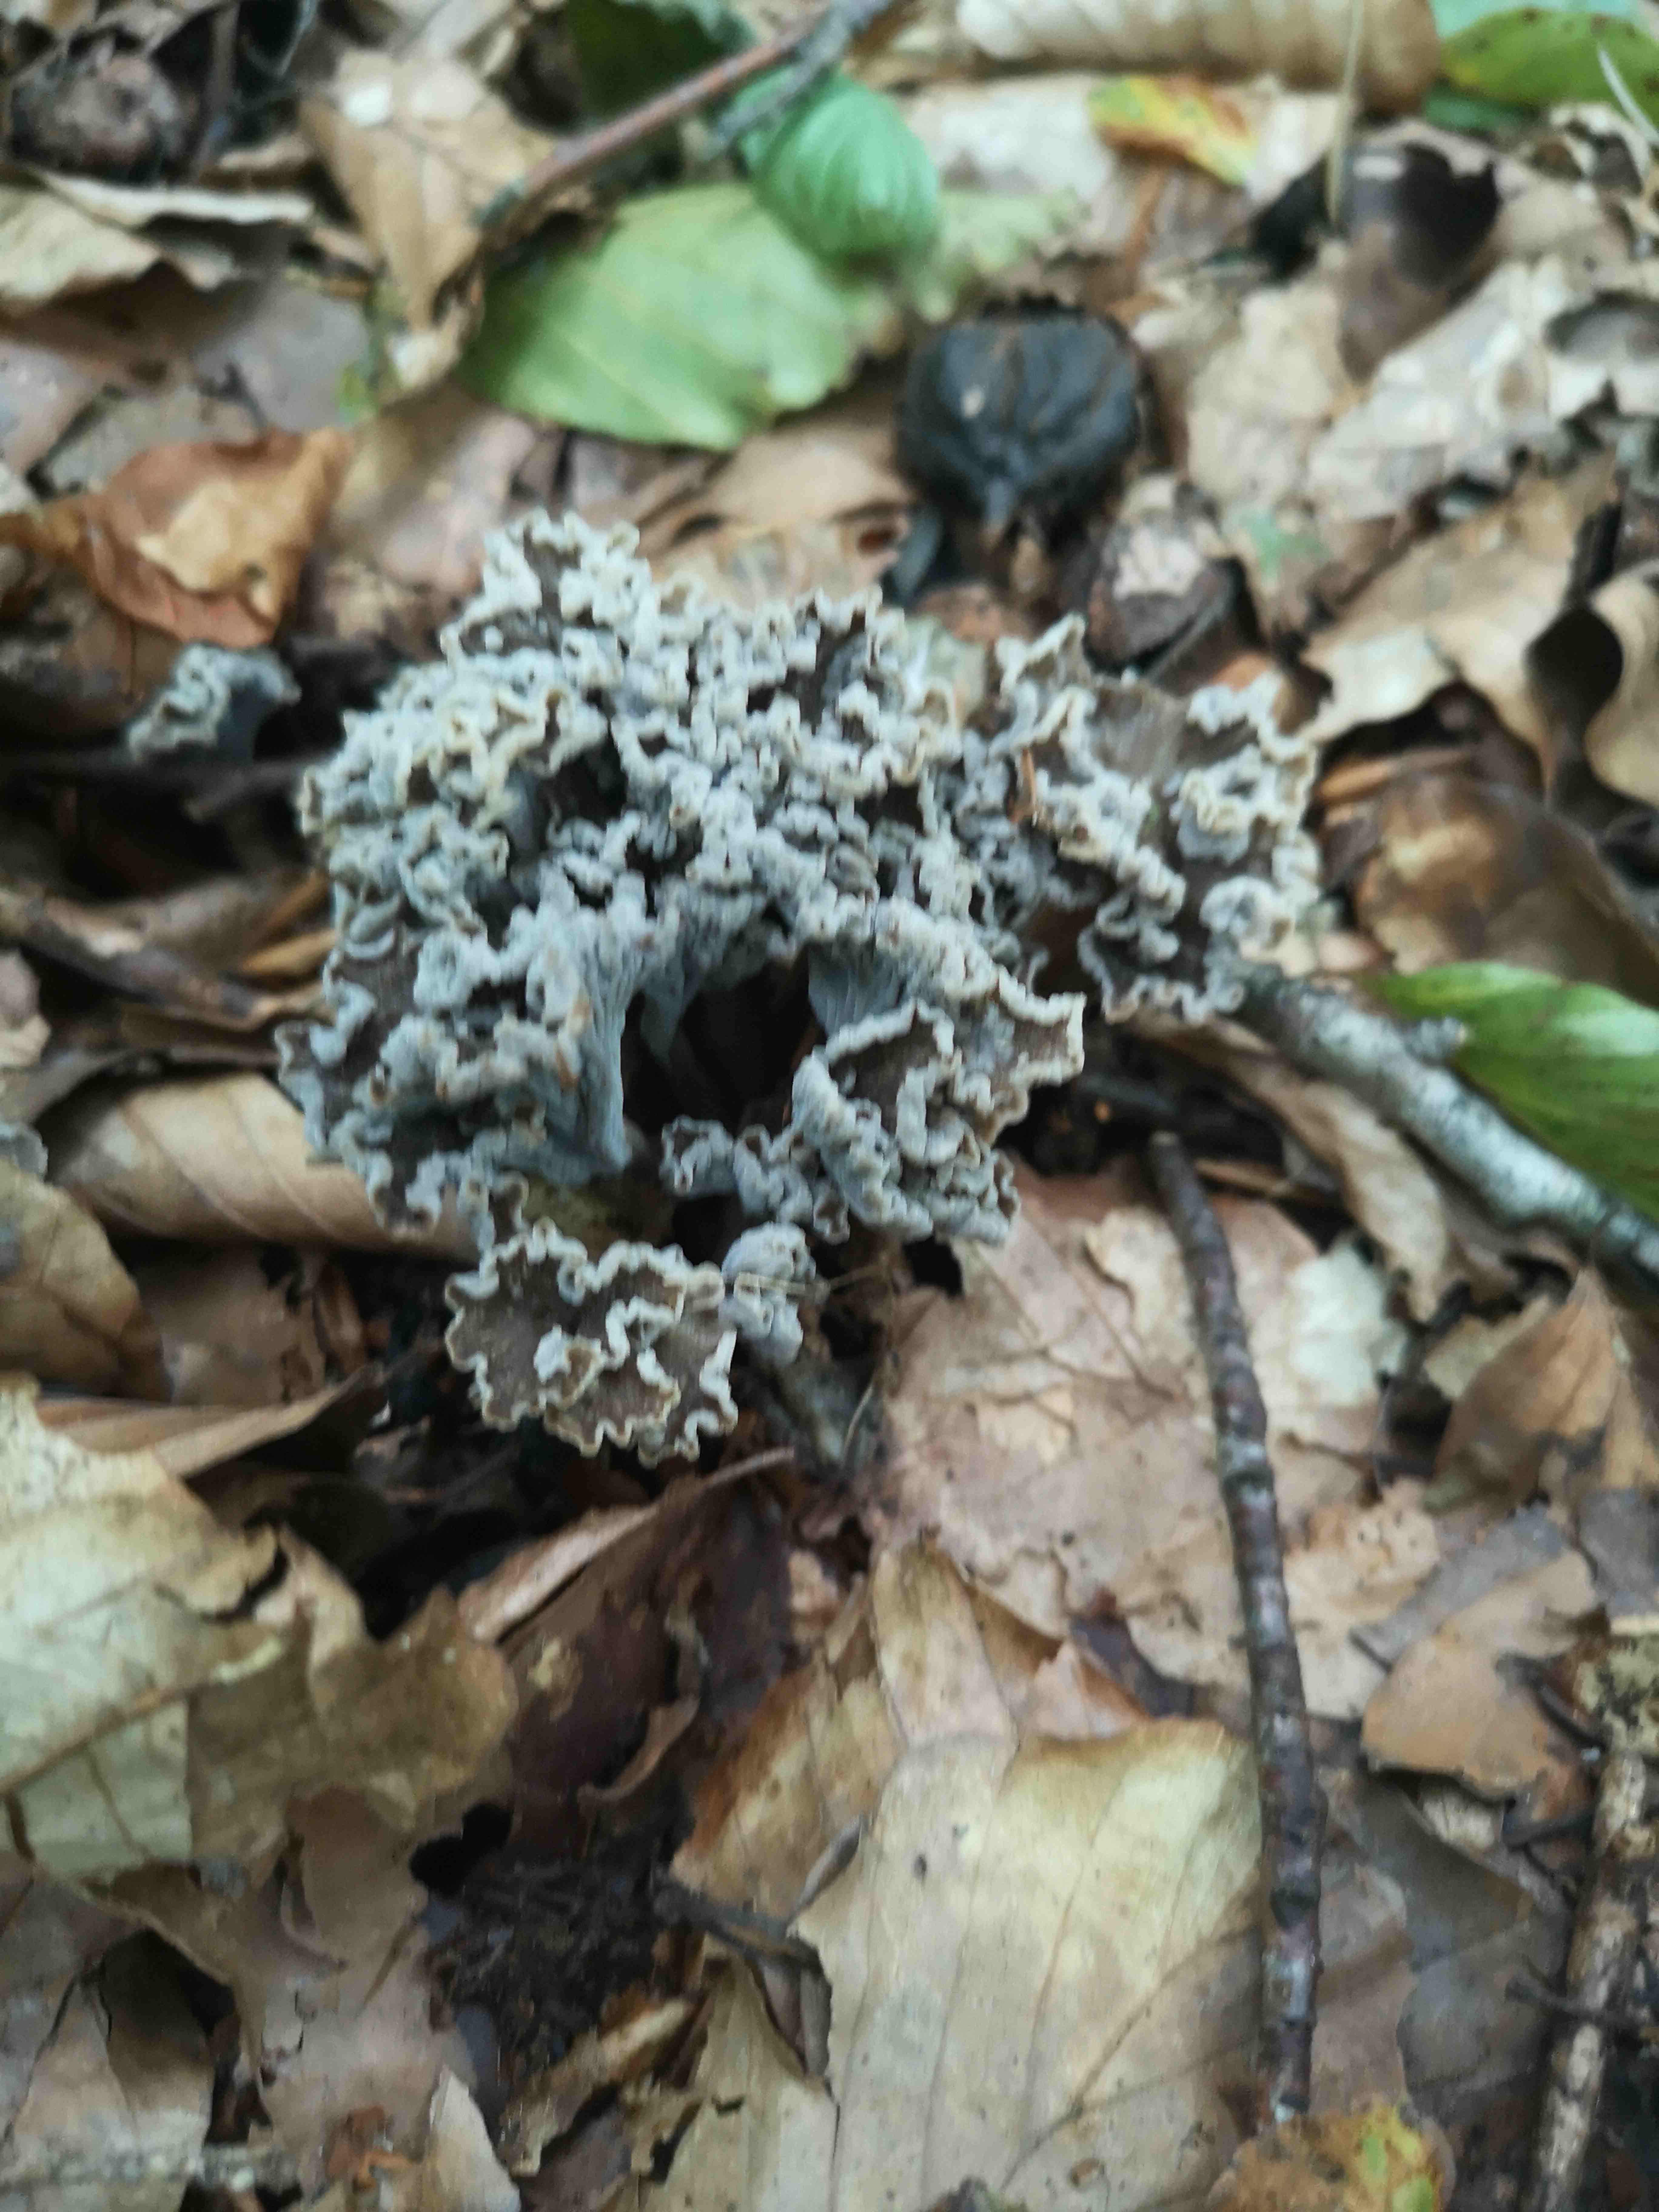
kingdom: Fungi
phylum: Basidiomycota
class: Agaricomycetes
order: Cantharellales
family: Hydnaceae
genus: Craterellus
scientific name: Craterellus undulatus
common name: liden kantarel
